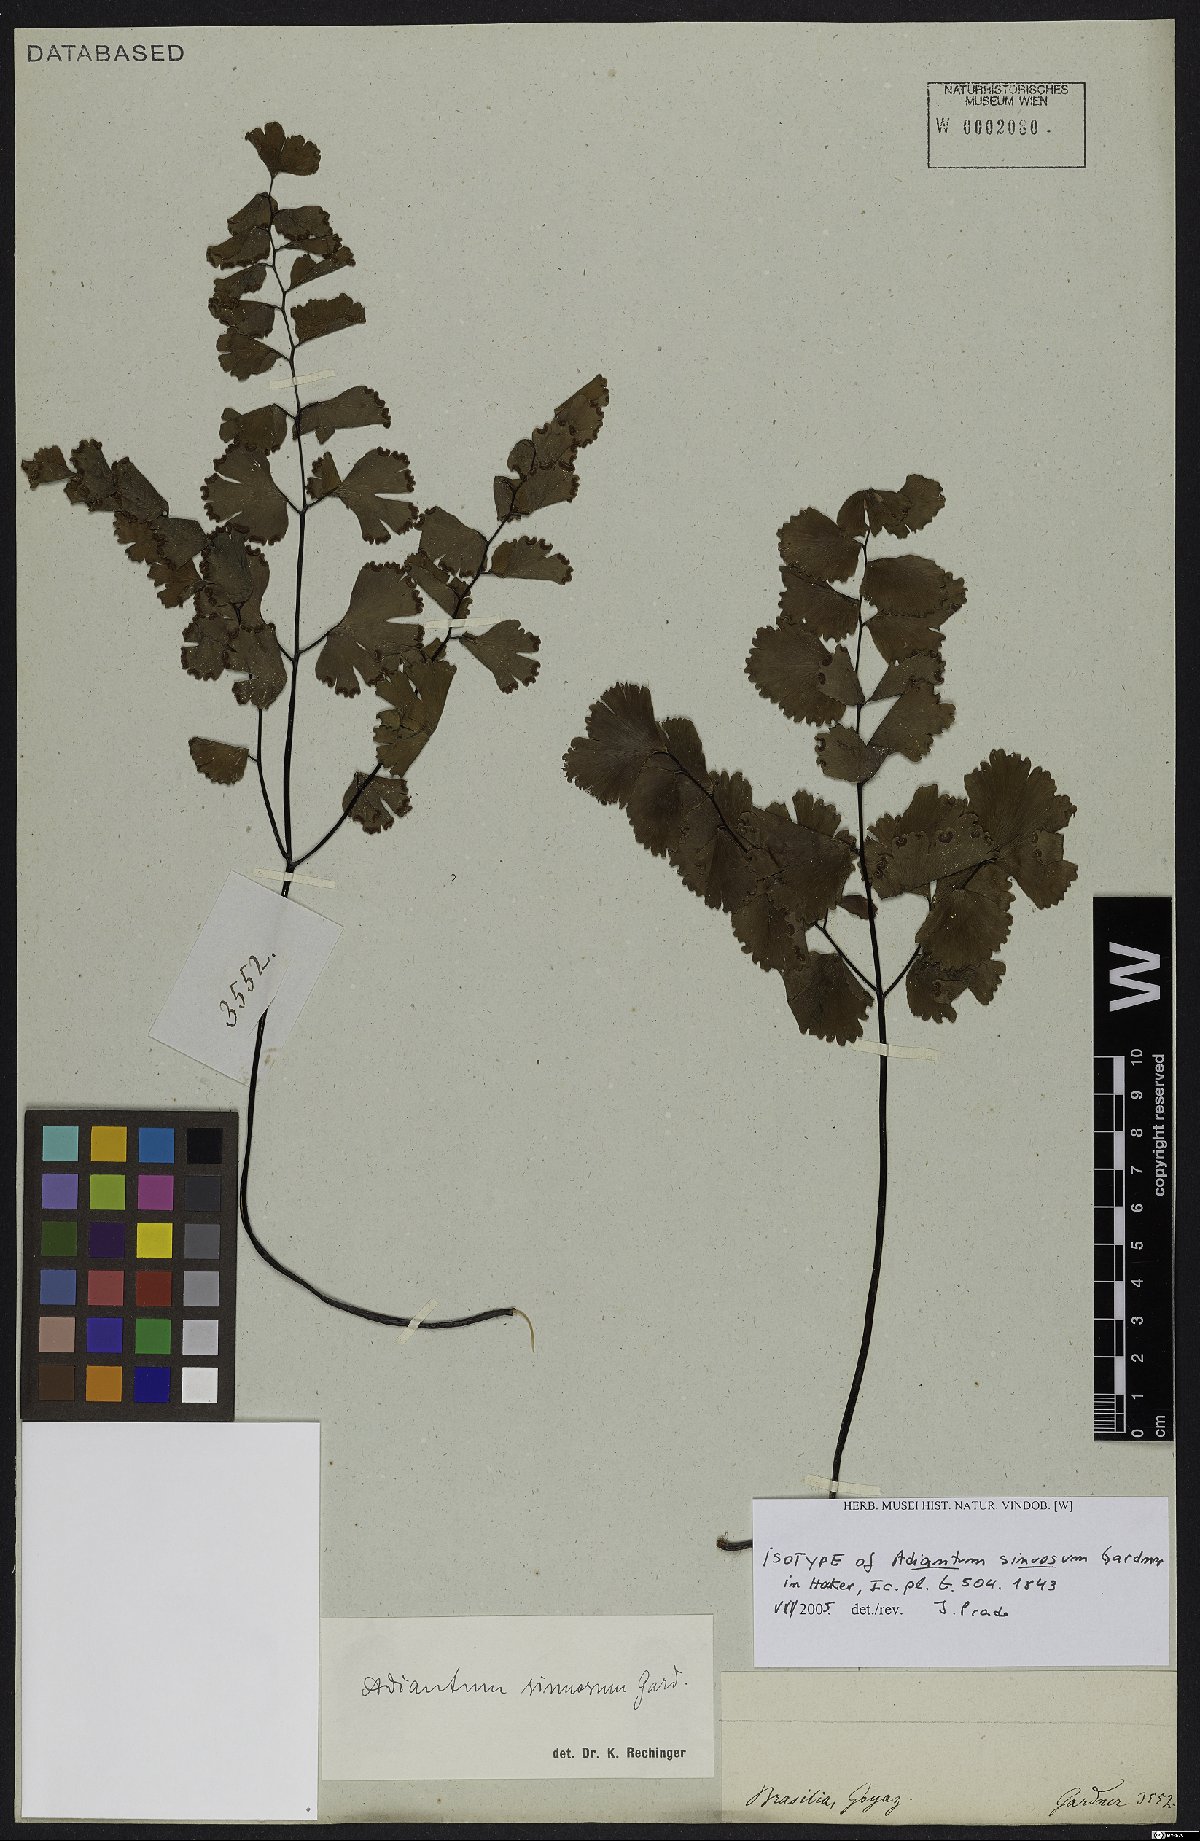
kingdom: Plantae
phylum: Tracheophyta
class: Polypodiopsida
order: Polypodiales
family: Pteridaceae
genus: Adiantum
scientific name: Adiantum sinuosum
